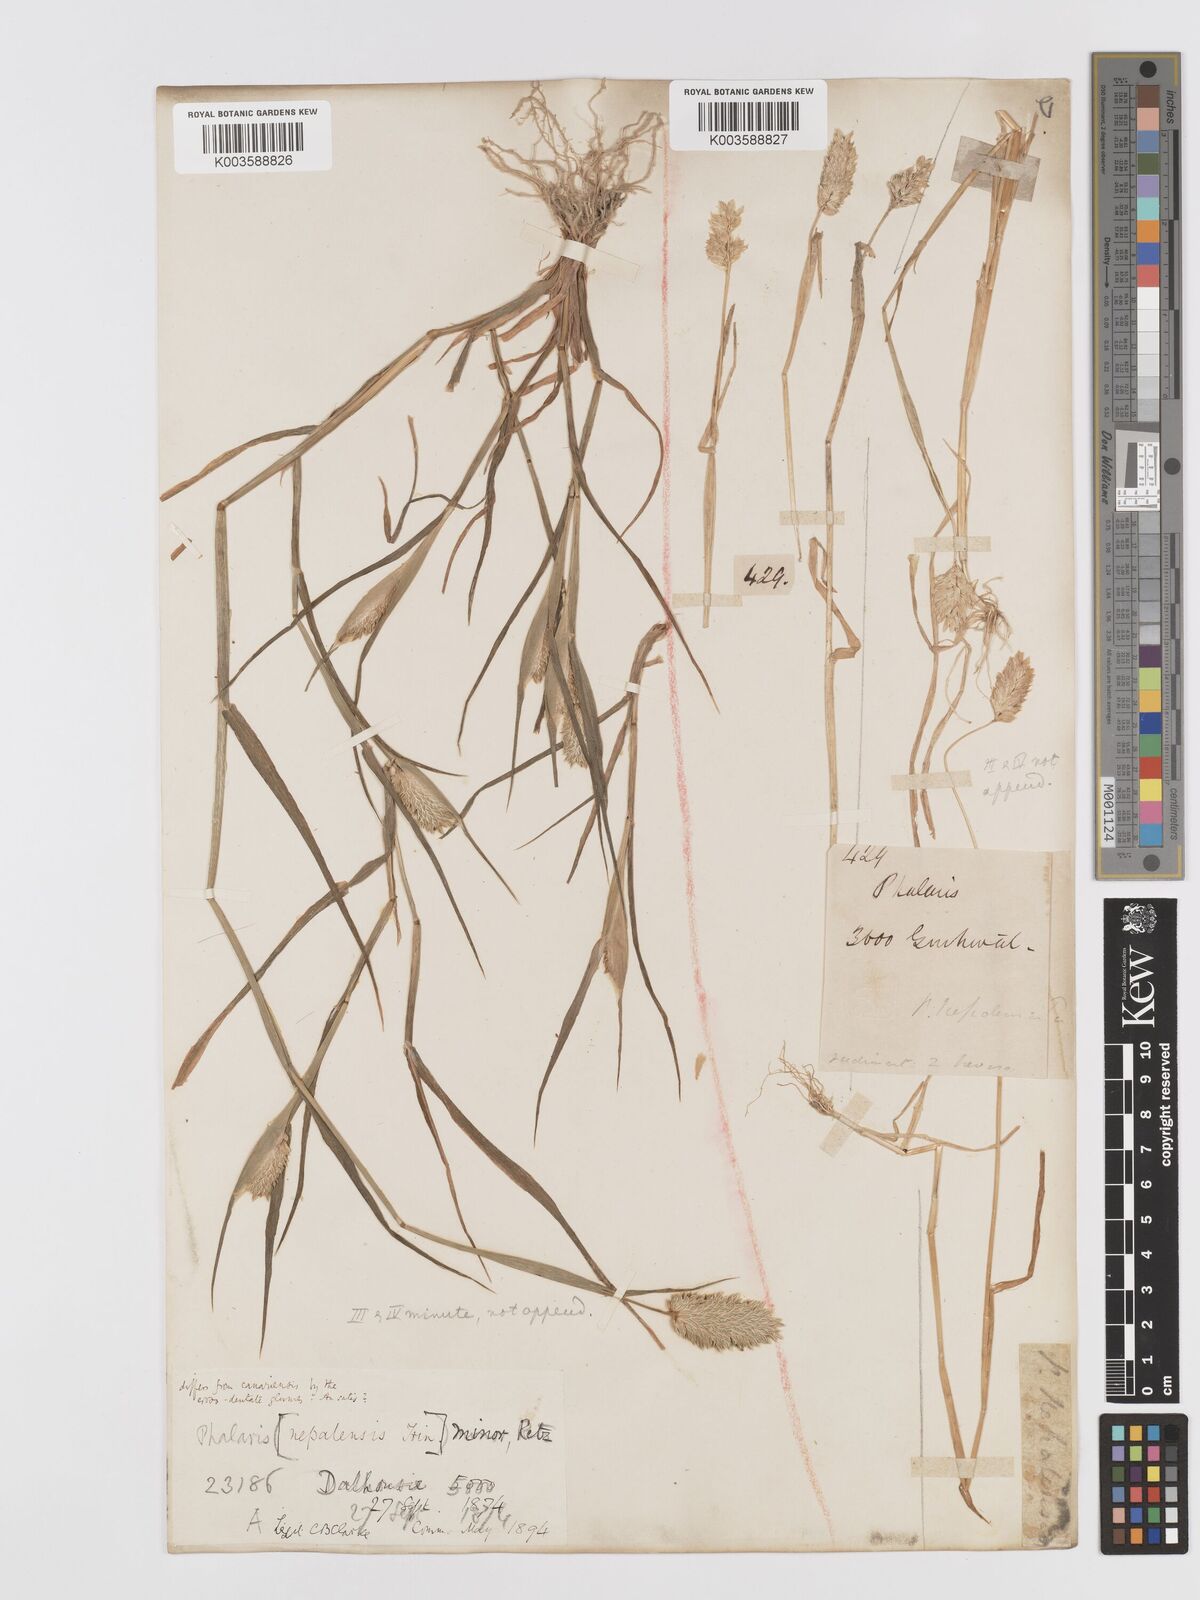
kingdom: Plantae
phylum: Tracheophyta
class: Liliopsida
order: Poales
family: Poaceae
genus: Phalaris
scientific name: Phalaris minor
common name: Littleseed canarygrass
